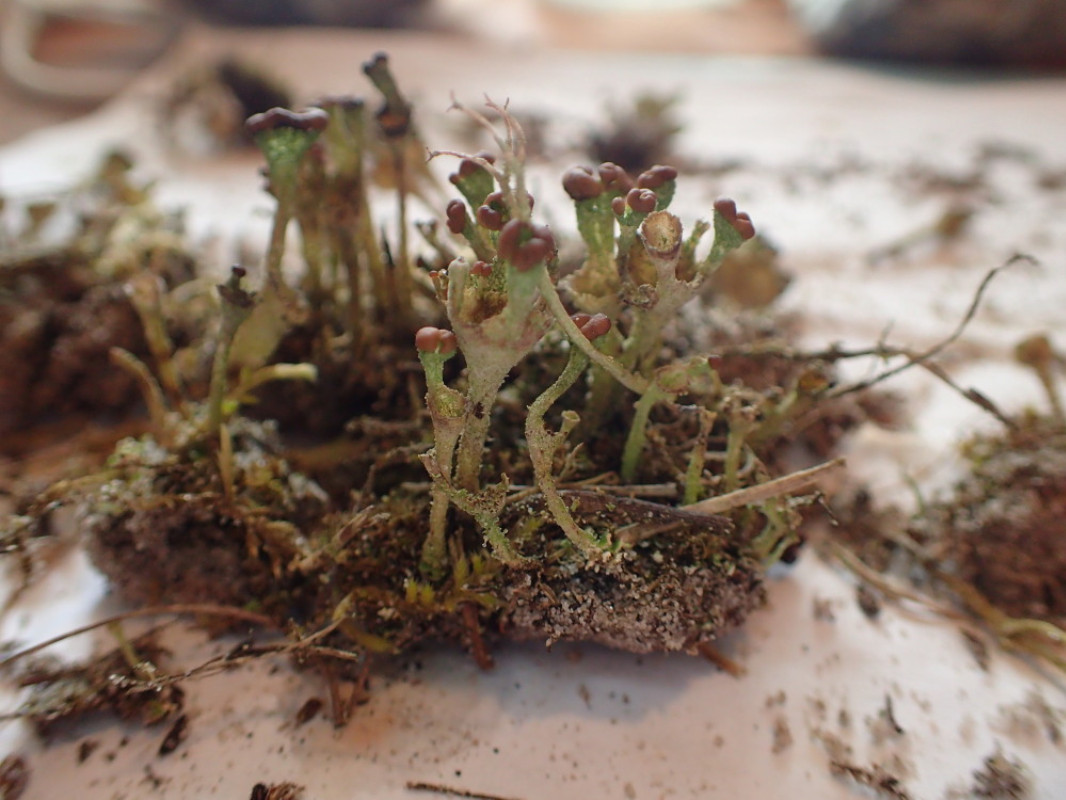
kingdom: Fungi
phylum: Ascomycota
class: Lecanoromycetes
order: Lecanorales
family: Cladoniaceae
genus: Cladonia
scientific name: Cladonia
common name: brungrøn bægerlav
